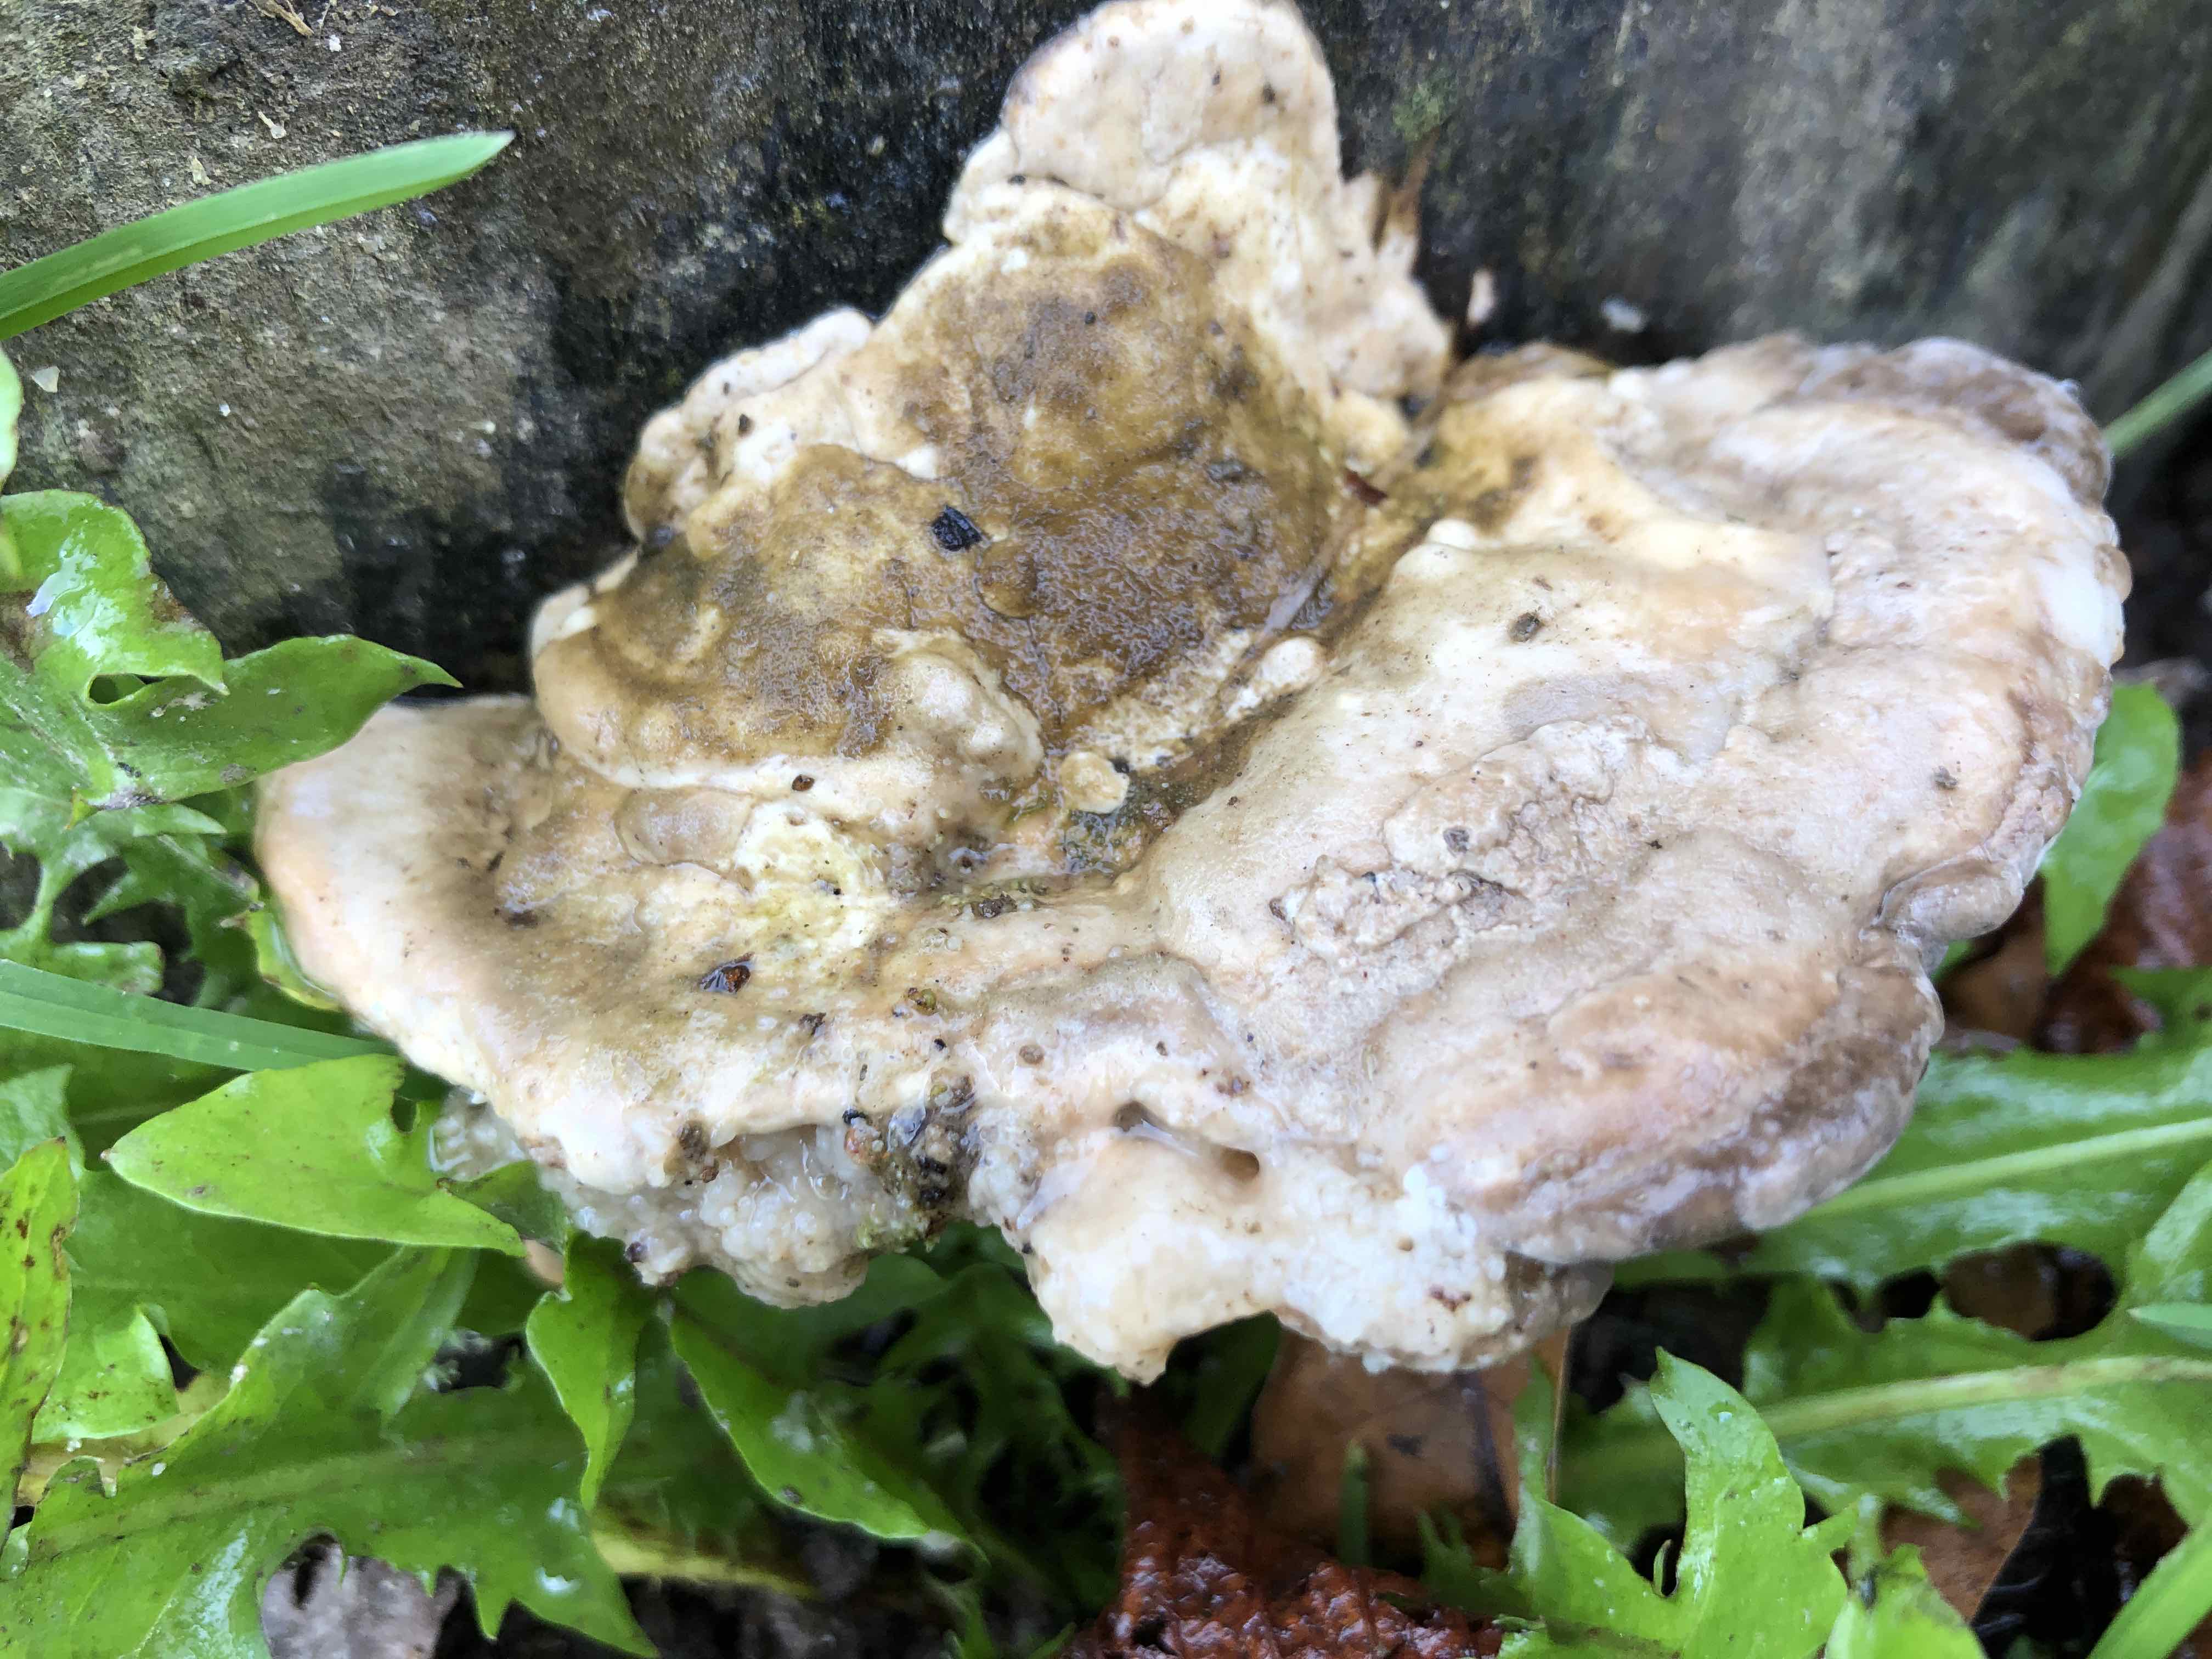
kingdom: Fungi
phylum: Basidiomycota
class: Agaricomycetes
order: Polyporales
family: Polyporaceae
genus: Trametes
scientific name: Trametes gibbosa
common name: puklet læderporesvamp
